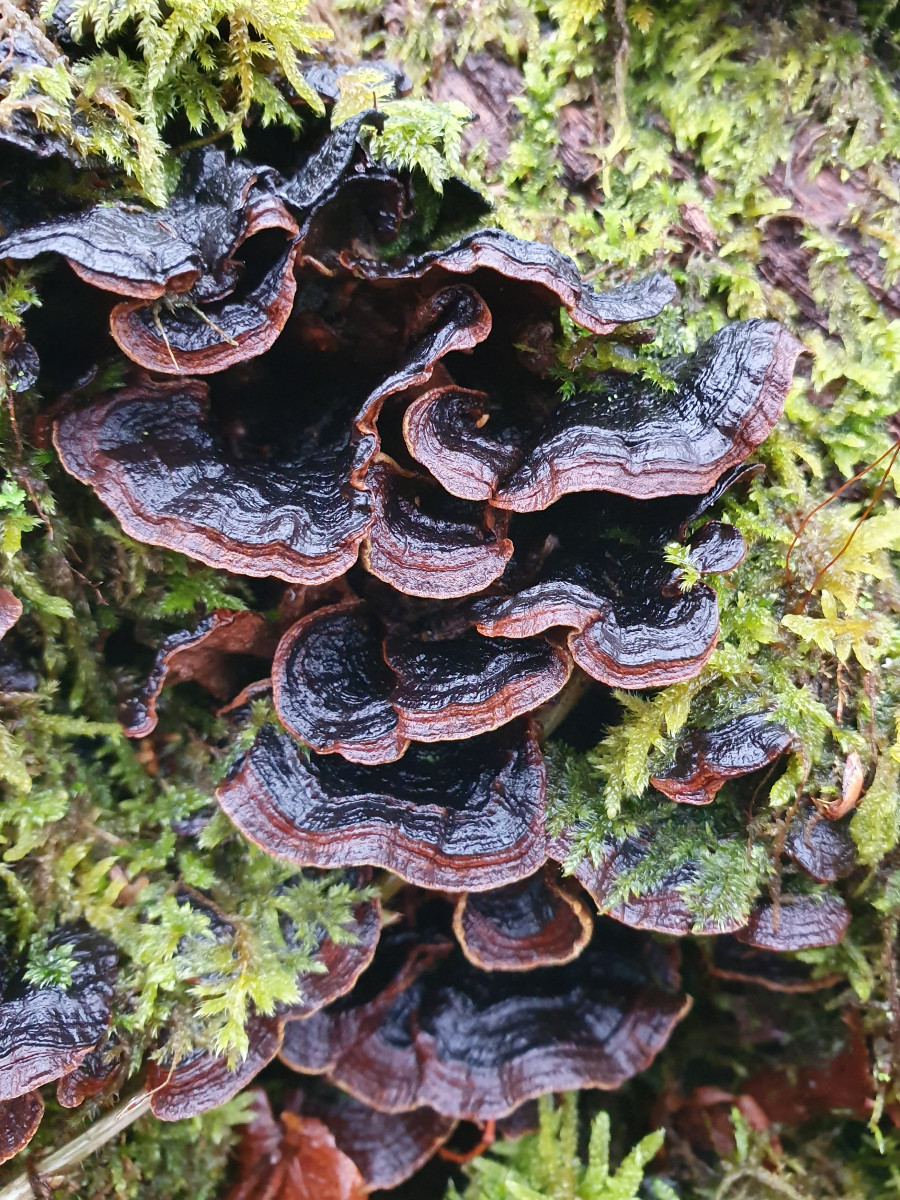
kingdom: Fungi
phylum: Basidiomycota
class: Agaricomycetes
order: Hymenochaetales
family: Hymenochaetaceae
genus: Hymenochaete
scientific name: Hymenochaete rubiginosa
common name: stiv ruslædersvamp
